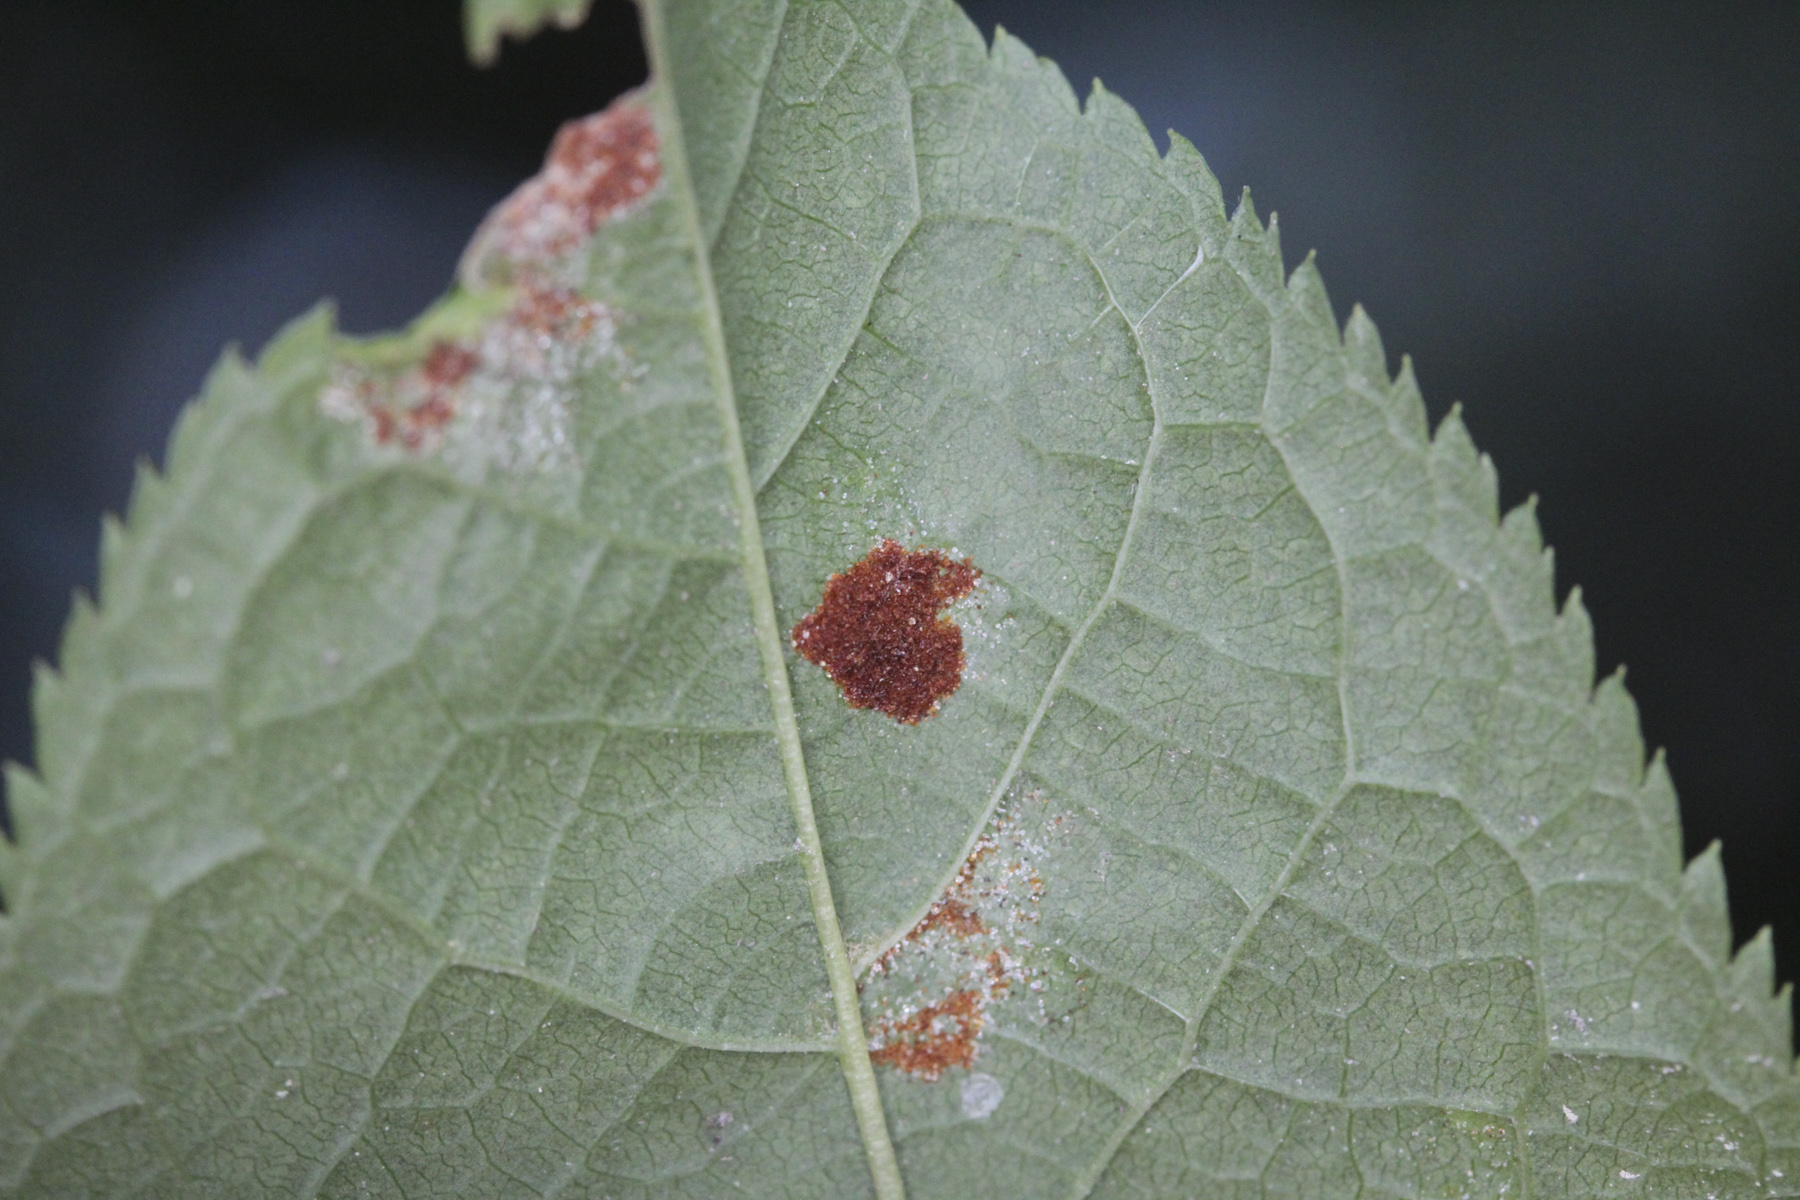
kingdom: Fungi
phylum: Ascomycota
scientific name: Ascomycota
